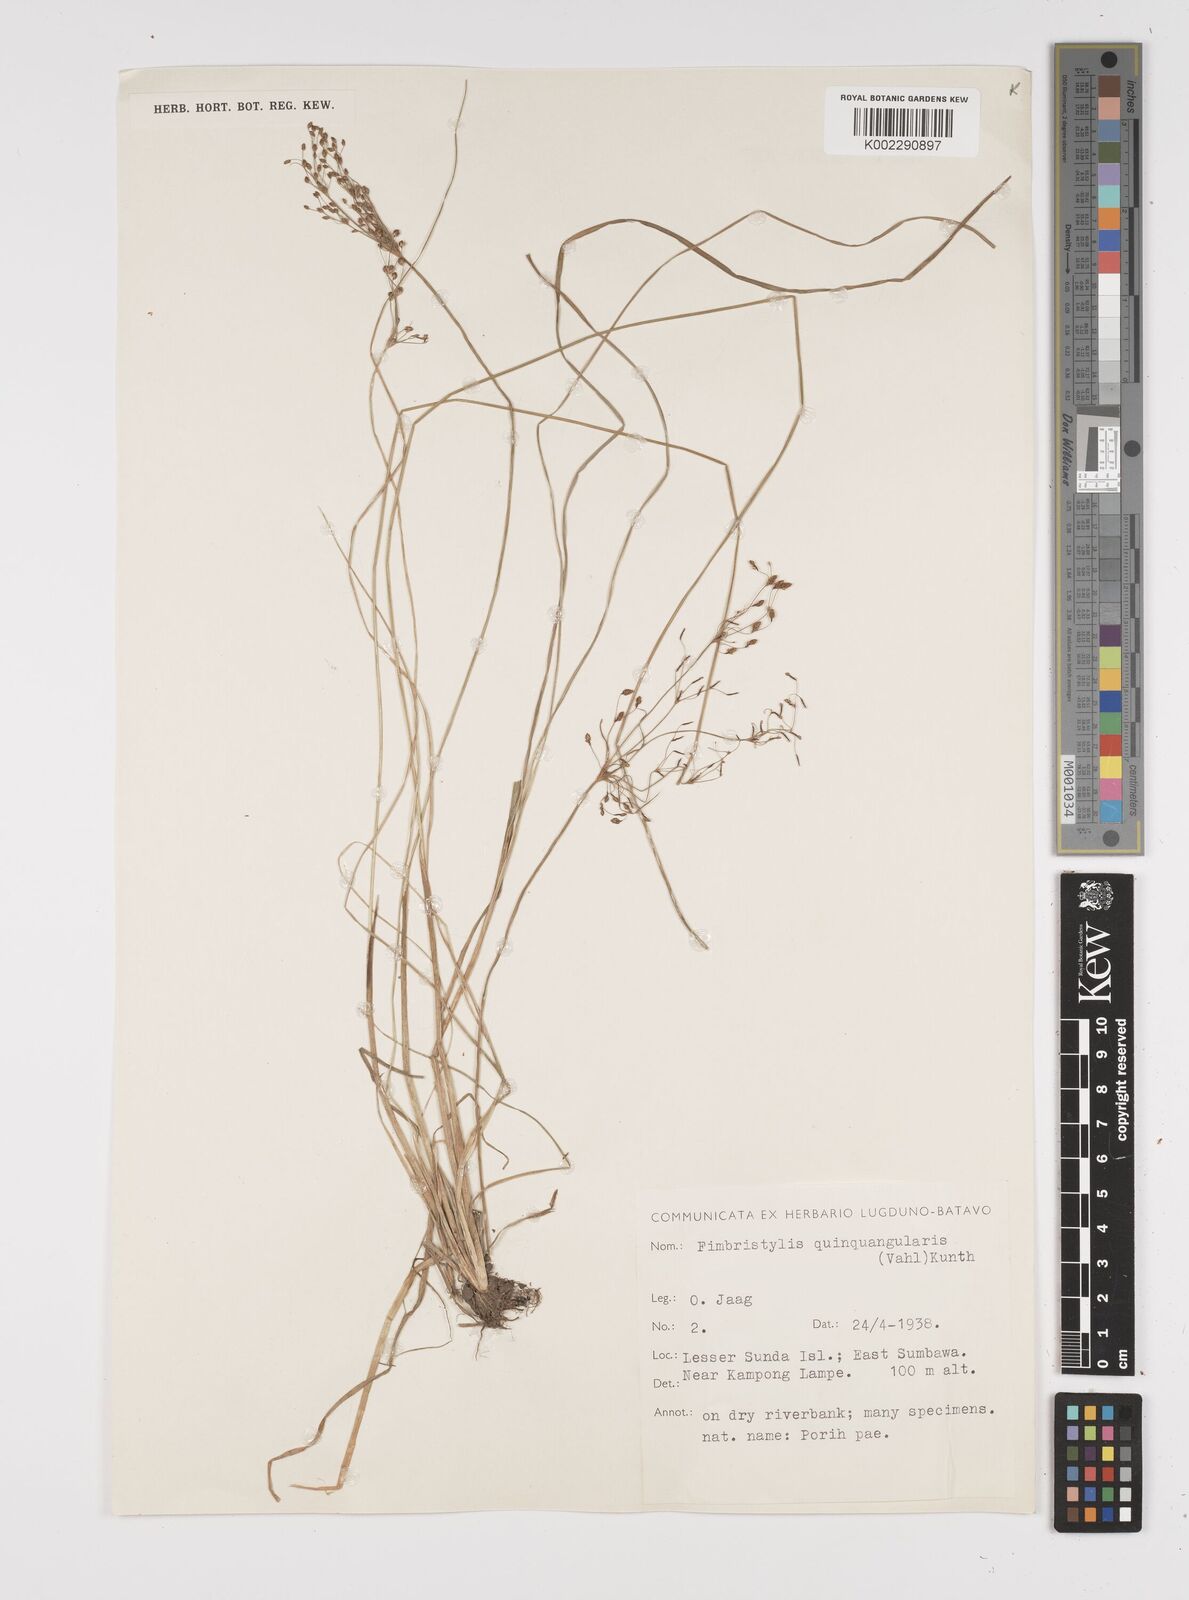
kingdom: Plantae
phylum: Tracheophyta
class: Liliopsida
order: Poales
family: Cyperaceae
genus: Fimbristylis
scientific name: Fimbristylis quinquangularis
